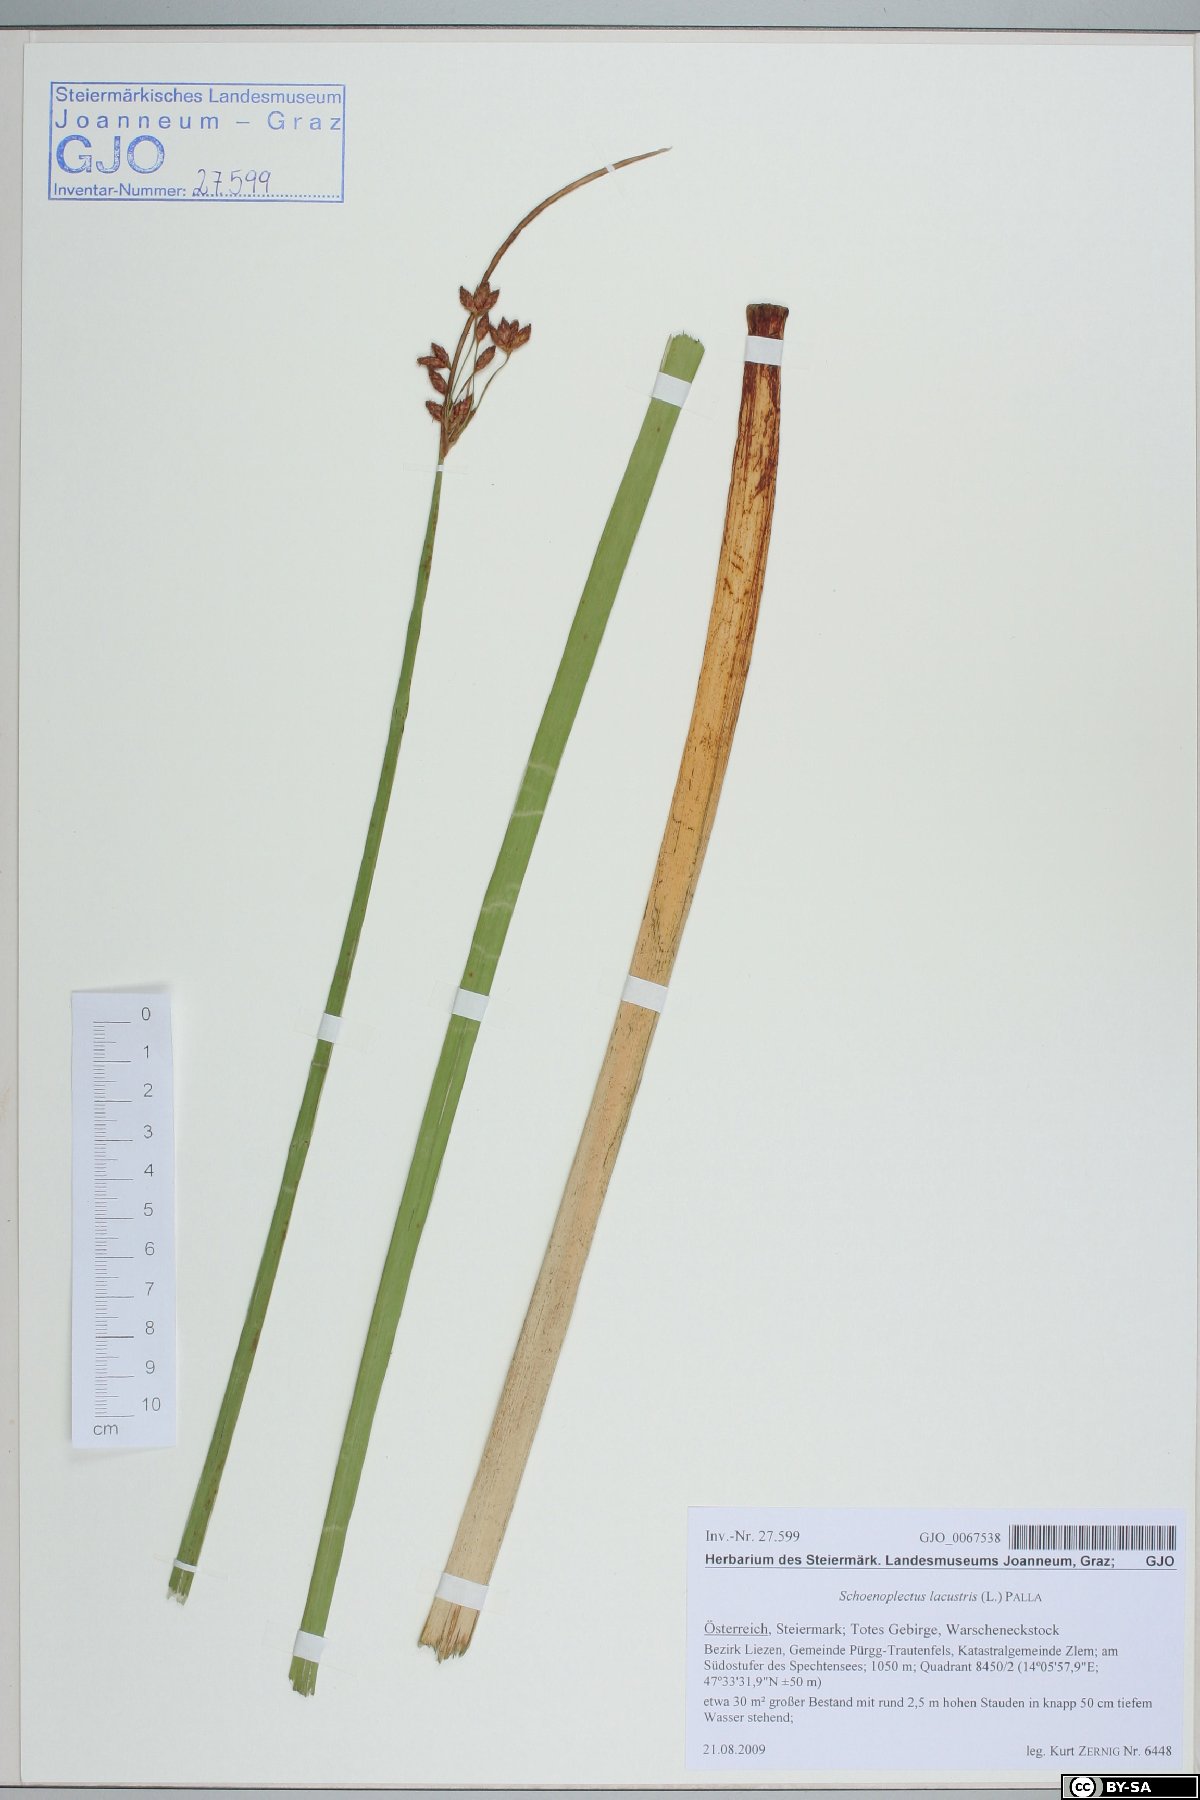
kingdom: Plantae
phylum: Tracheophyta
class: Liliopsida
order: Poales
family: Cyperaceae
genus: Schoenoplectus
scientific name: Schoenoplectus lacustris
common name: Common club-rush
